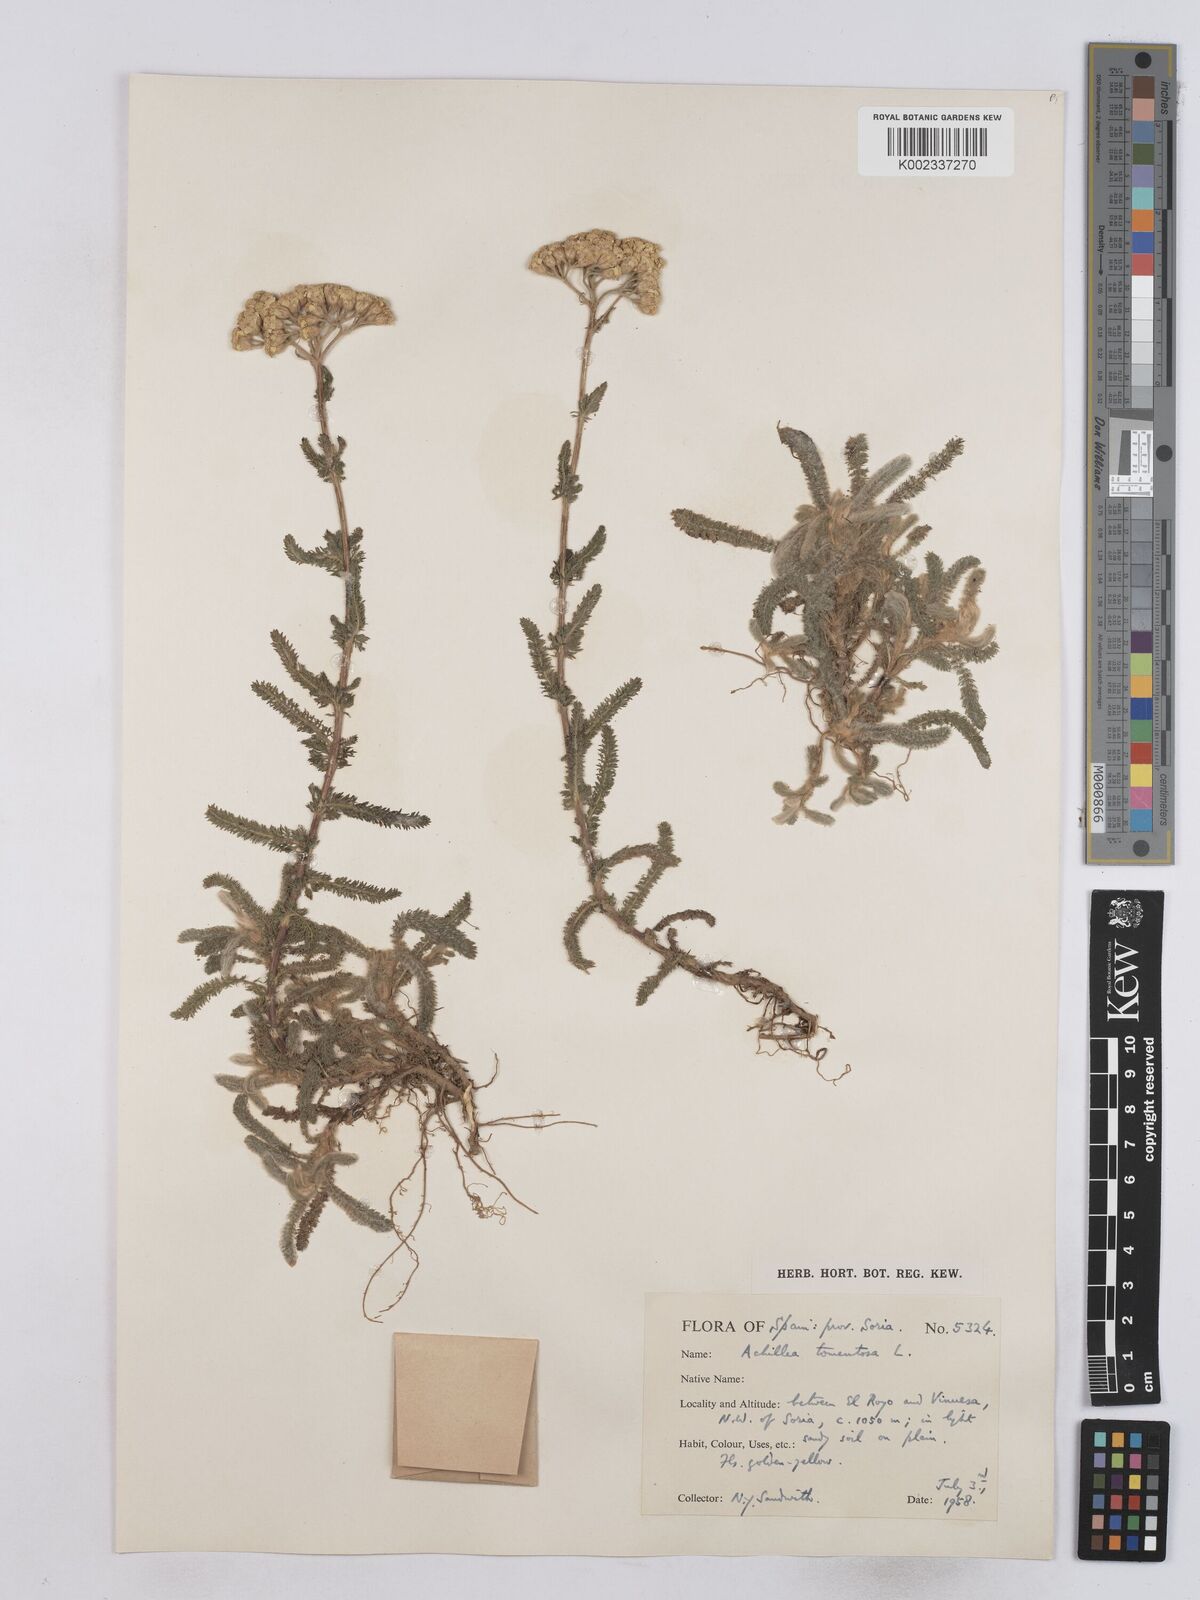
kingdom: Plantae
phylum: Tracheophyta
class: Magnoliopsida
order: Asterales
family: Asteraceae
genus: Achillea
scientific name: Achillea tomentosa
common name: Yellow milfoil
